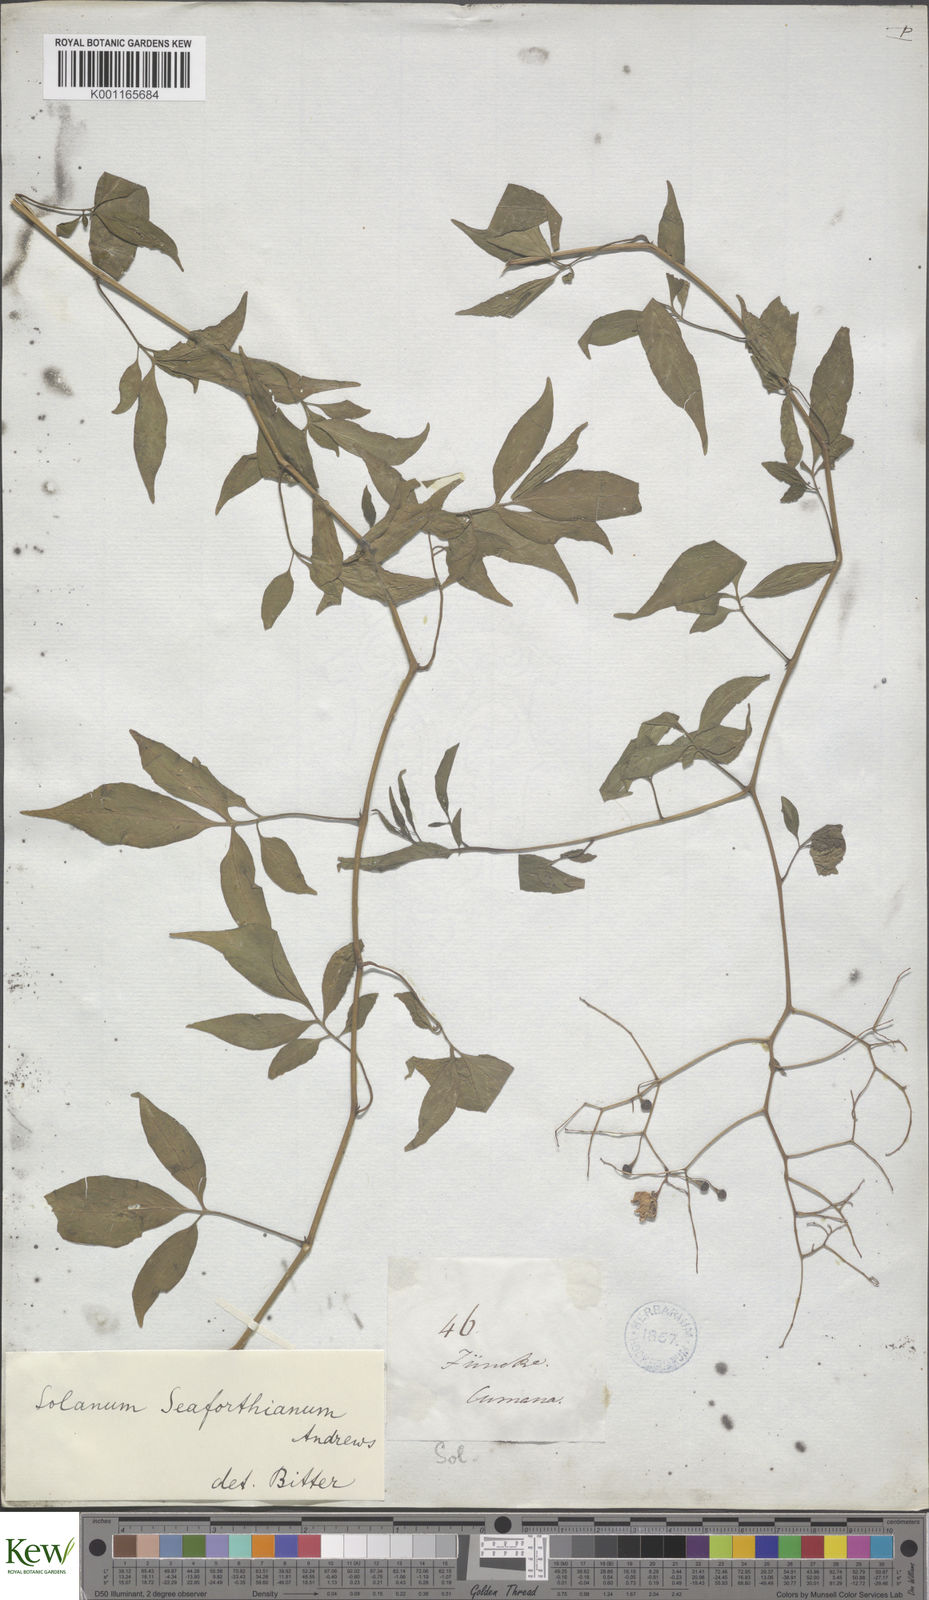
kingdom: Plantae
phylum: Tracheophyta
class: Magnoliopsida
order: Solanales
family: Solanaceae
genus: Solanum
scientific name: Solanum seaforthianum
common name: Brazilian nightshade
